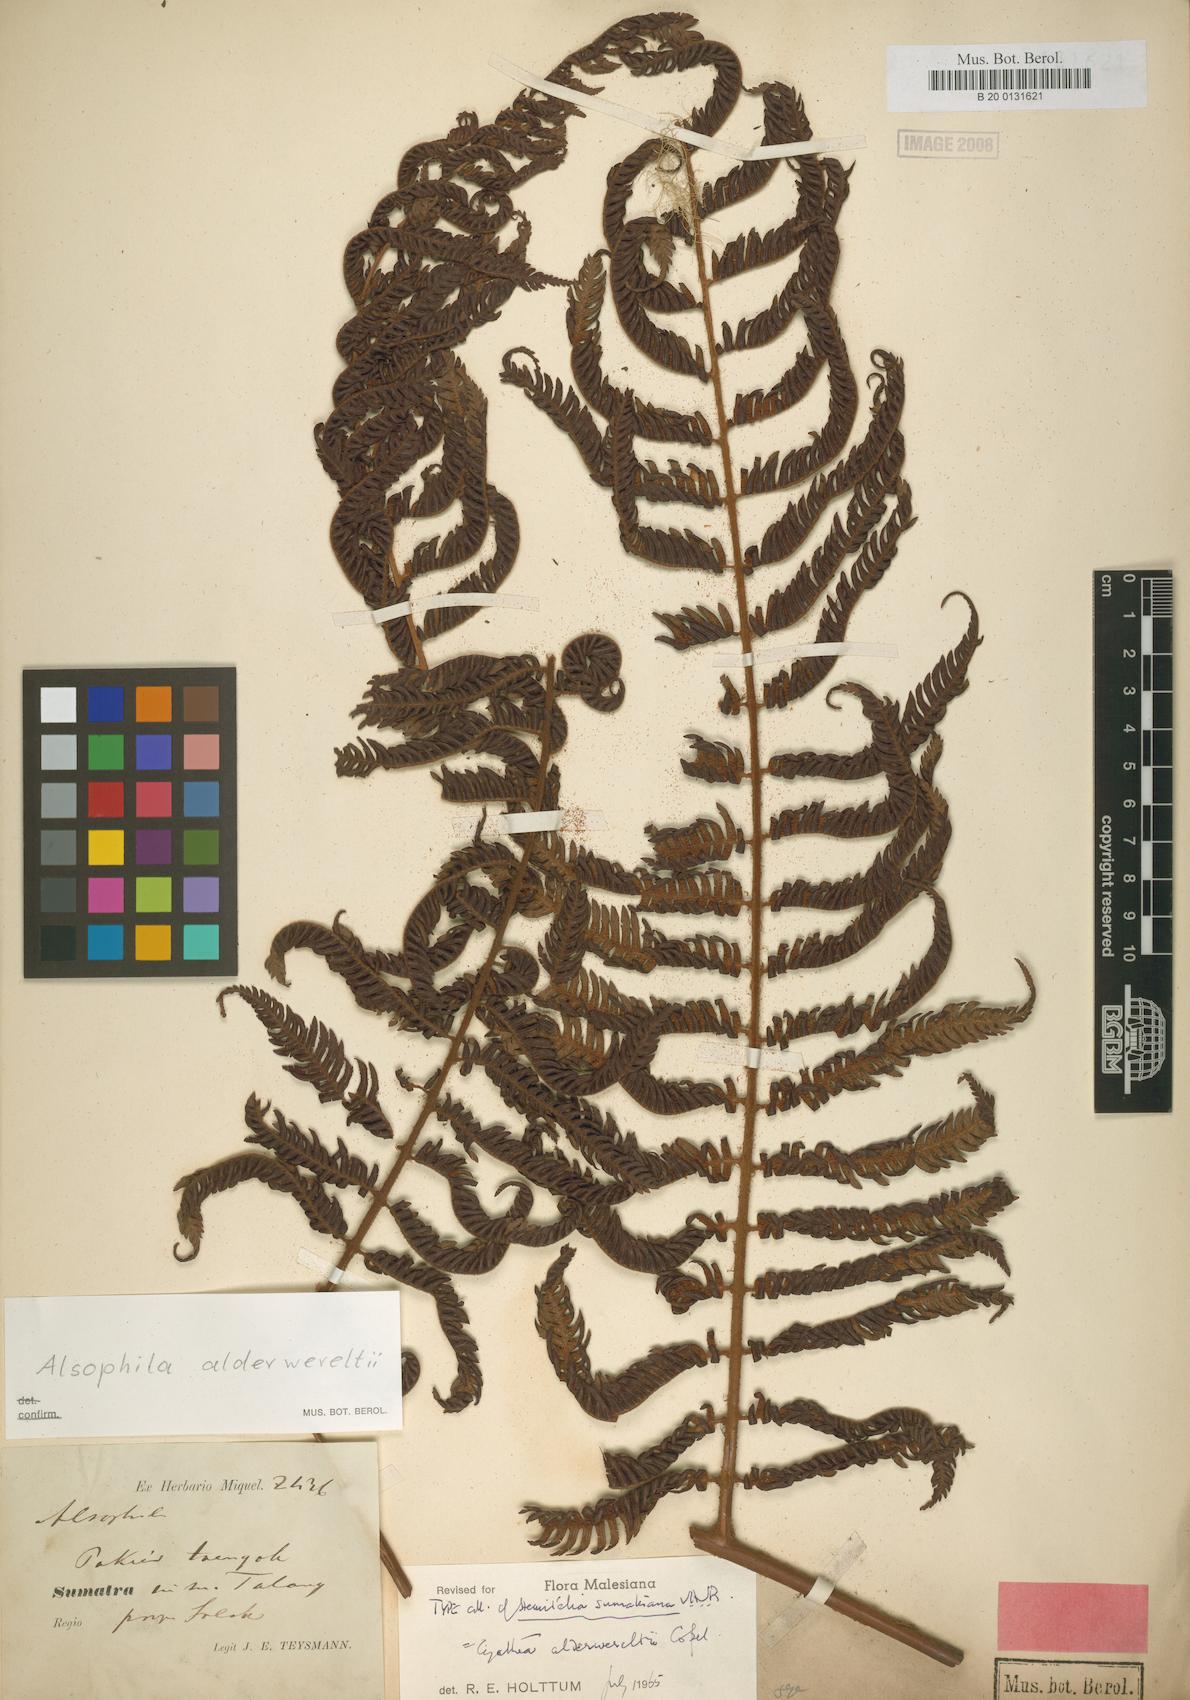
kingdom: Plantae
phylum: Tracheophyta
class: Polypodiopsida
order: Cyatheales
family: Cyatheaceae
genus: Alsophila
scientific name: Alsophila alderwereltii
